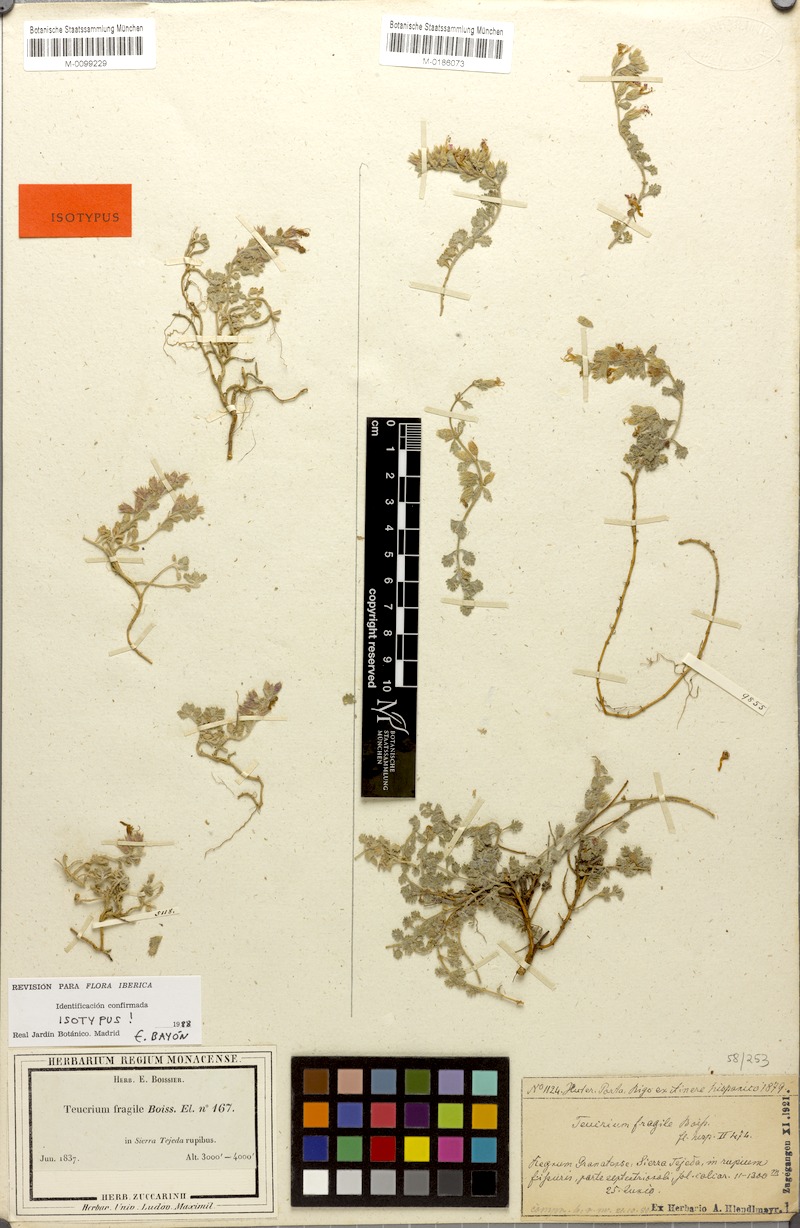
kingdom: Plantae
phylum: Tracheophyta
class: Magnoliopsida
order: Lamiales
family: Lamiaceae
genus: Teucrium
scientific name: Teucrium fragile
